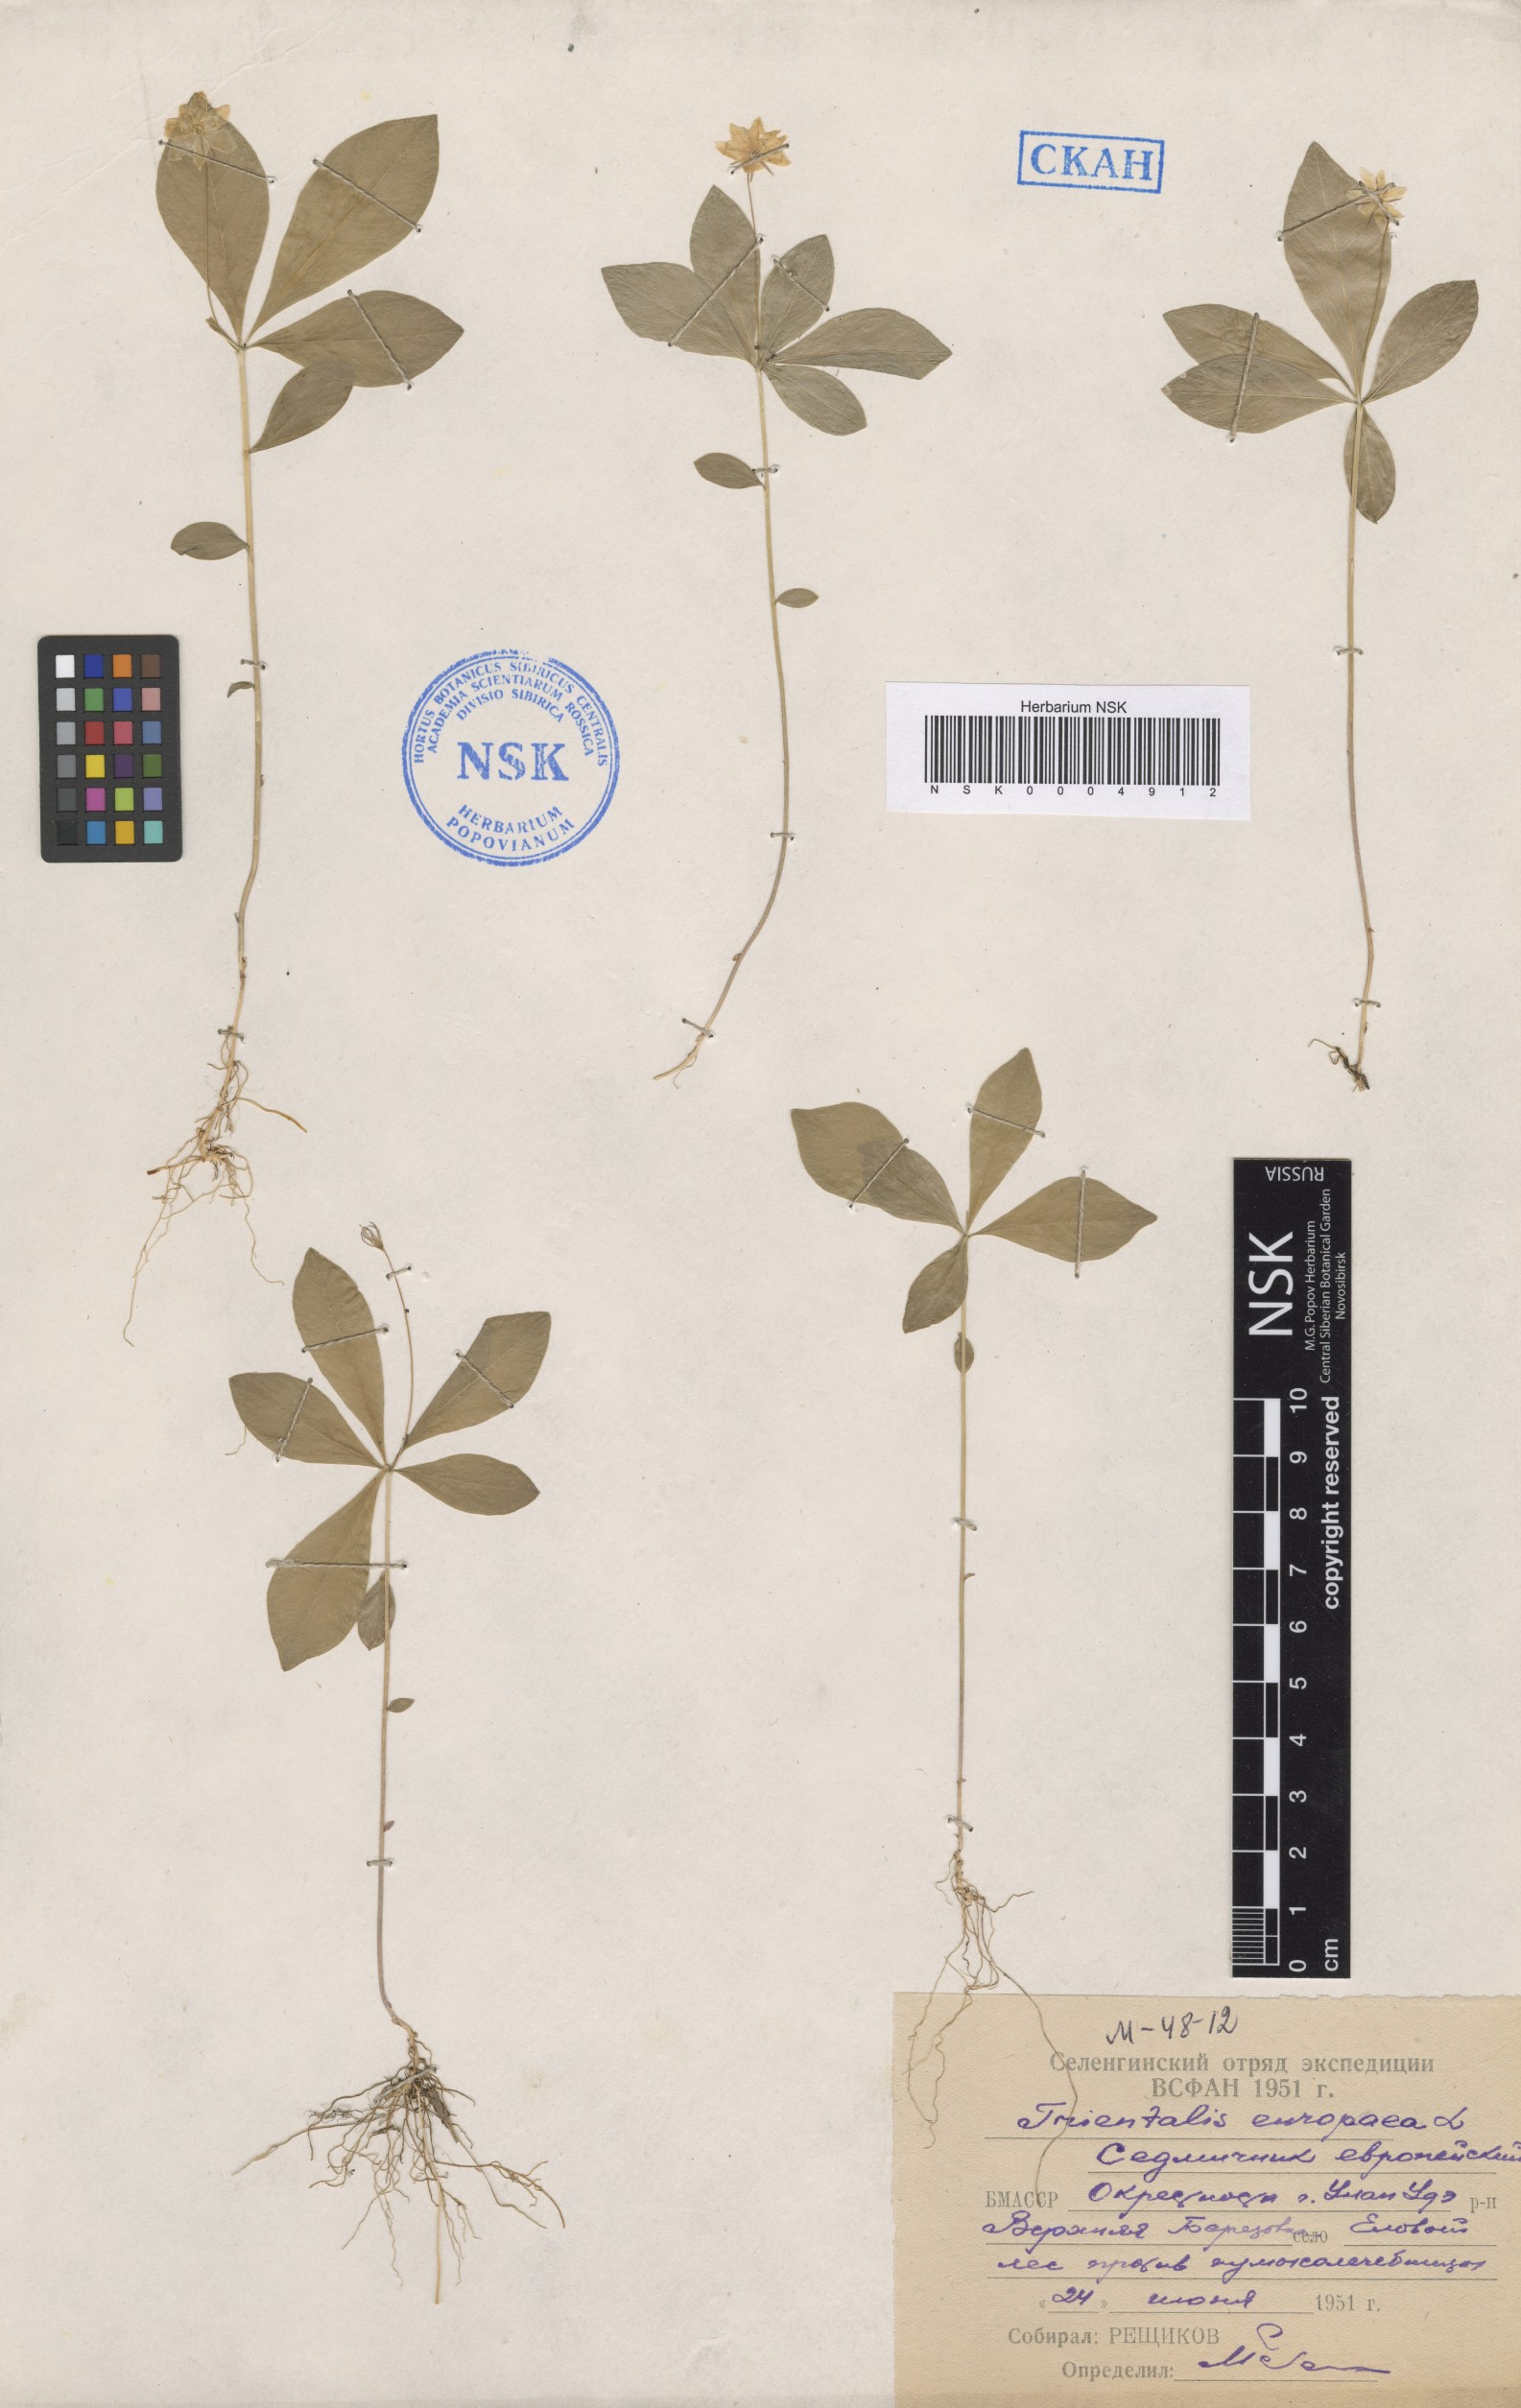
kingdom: Plantae
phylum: Tracheophyta
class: Magnoliopsida
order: Ericales
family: Primulaceae
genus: Lysimachia
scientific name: Lysimachia europaea
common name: Arctic starflower
